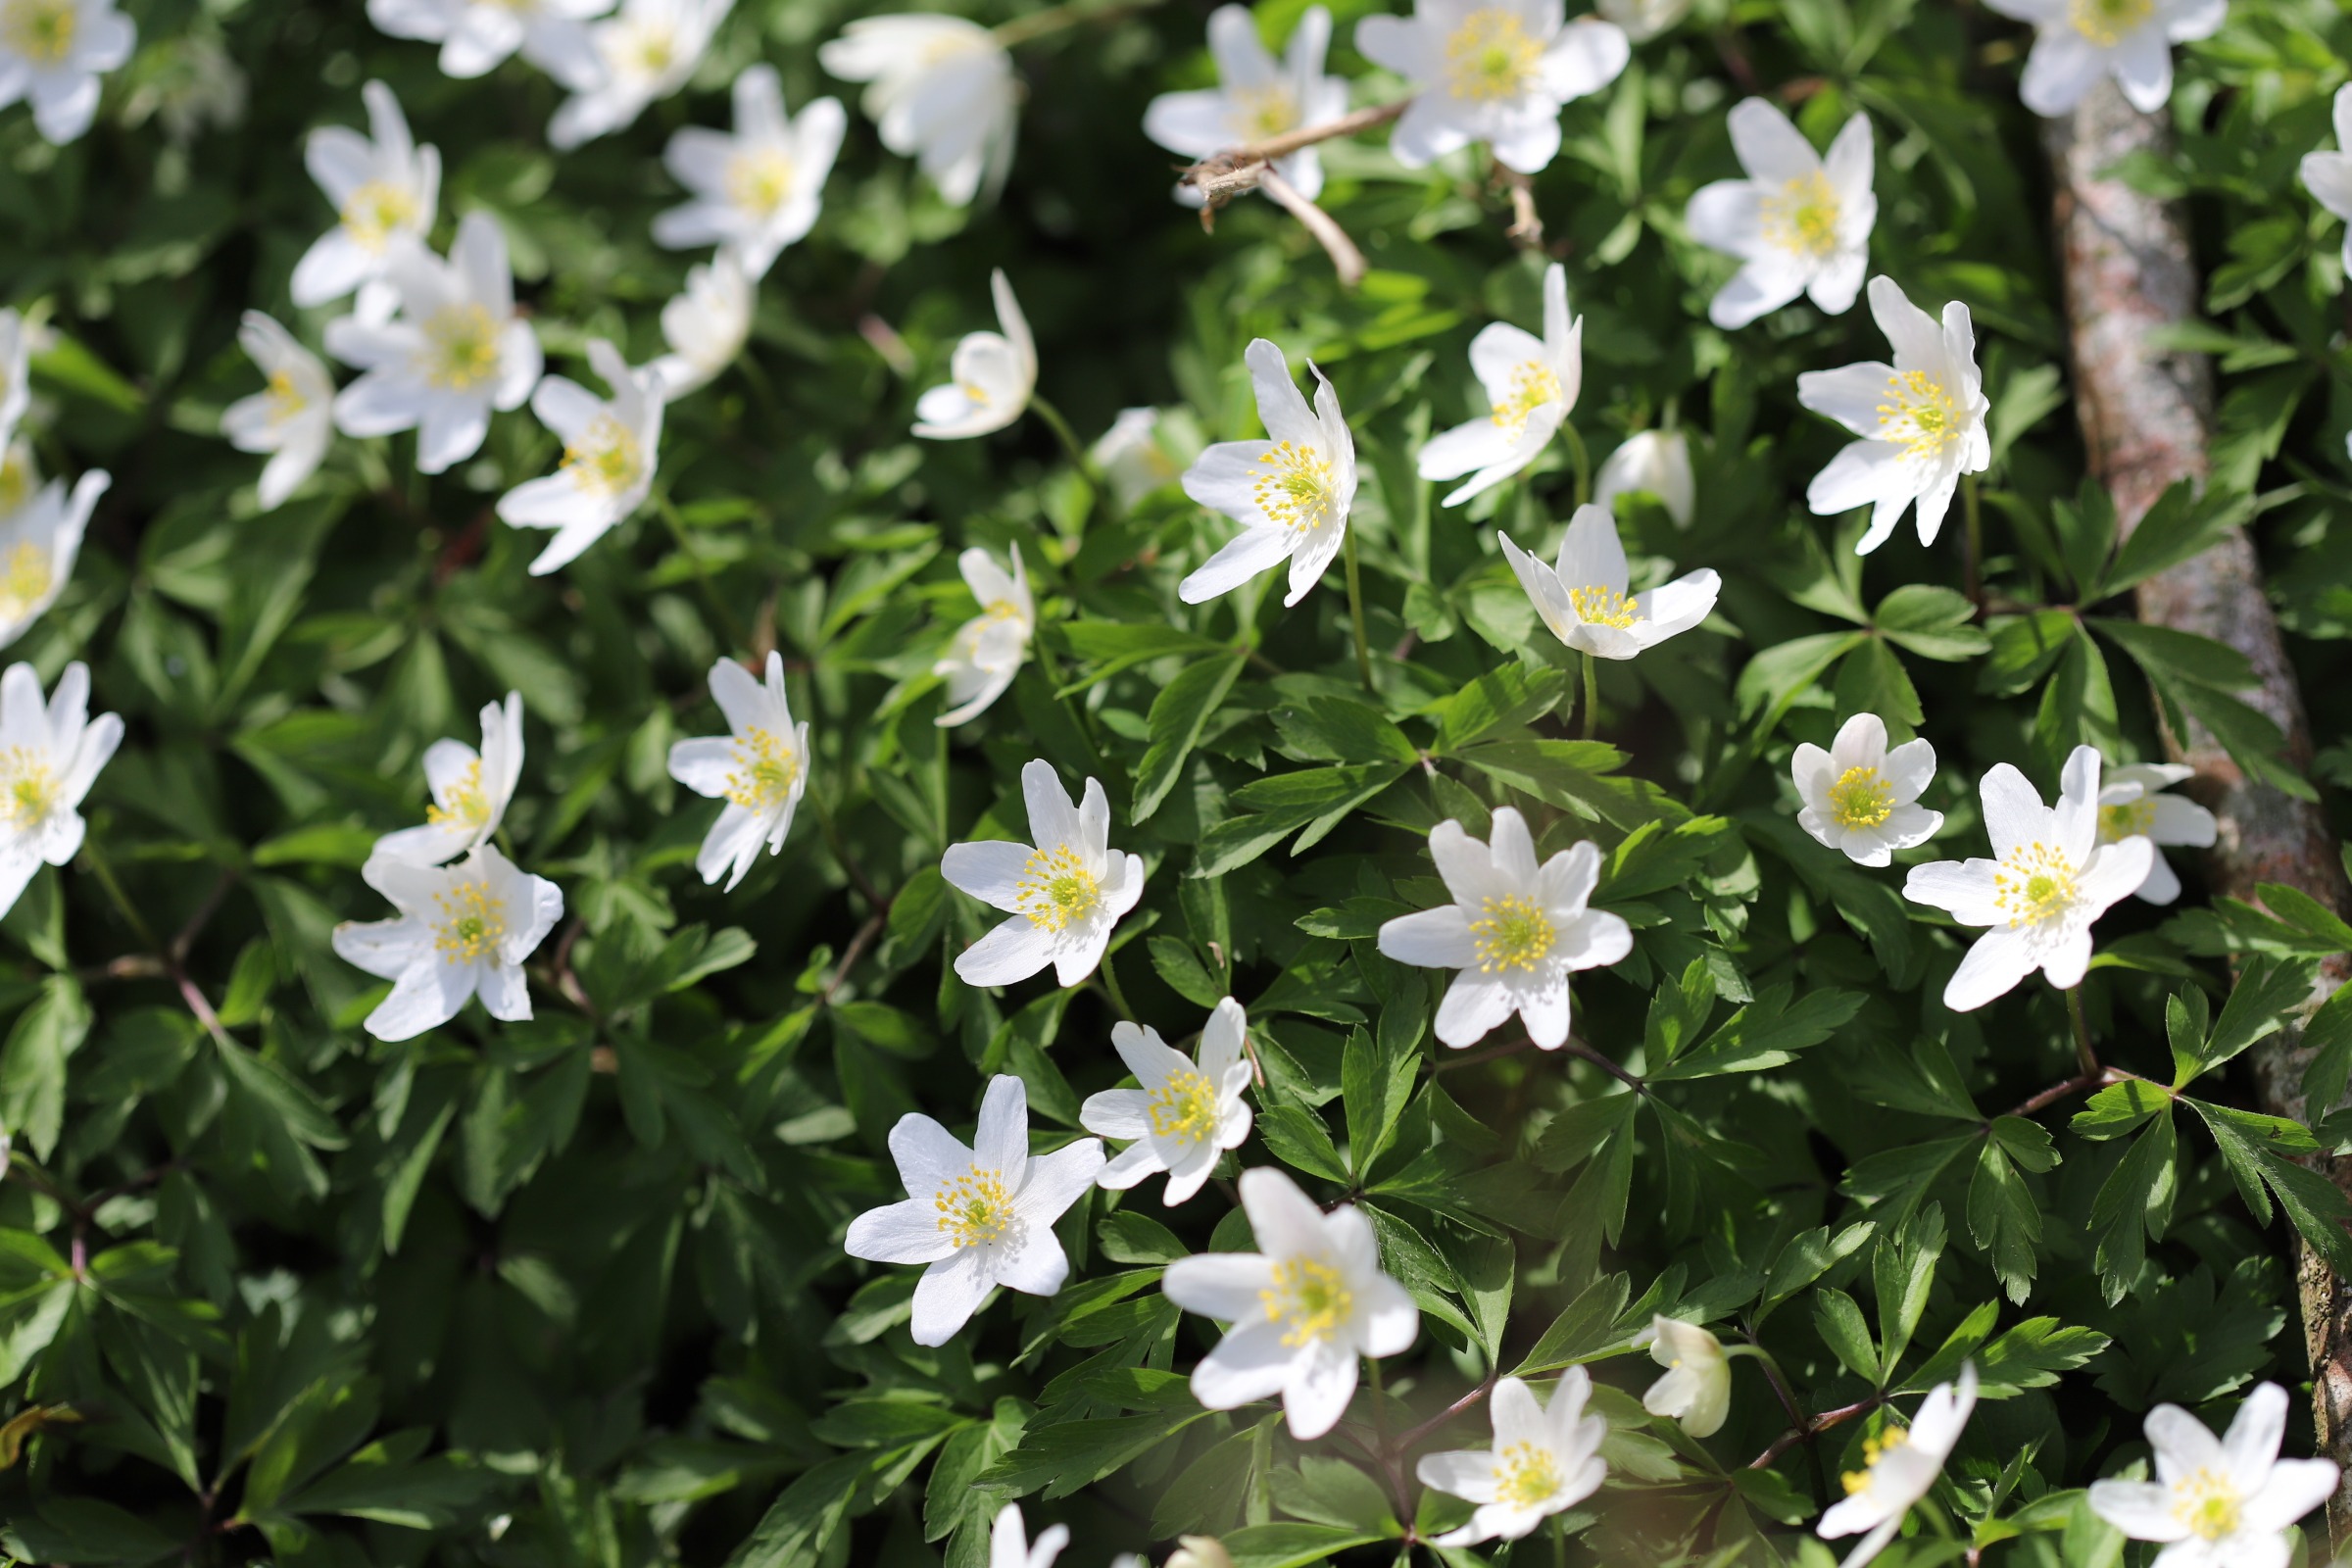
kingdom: Plantae
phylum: Tracheophyta
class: Magnoliopsida
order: Ranunculales
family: Ranunculaceae
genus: Anemone
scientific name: Anemone nemorosa
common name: Hvid anemone
